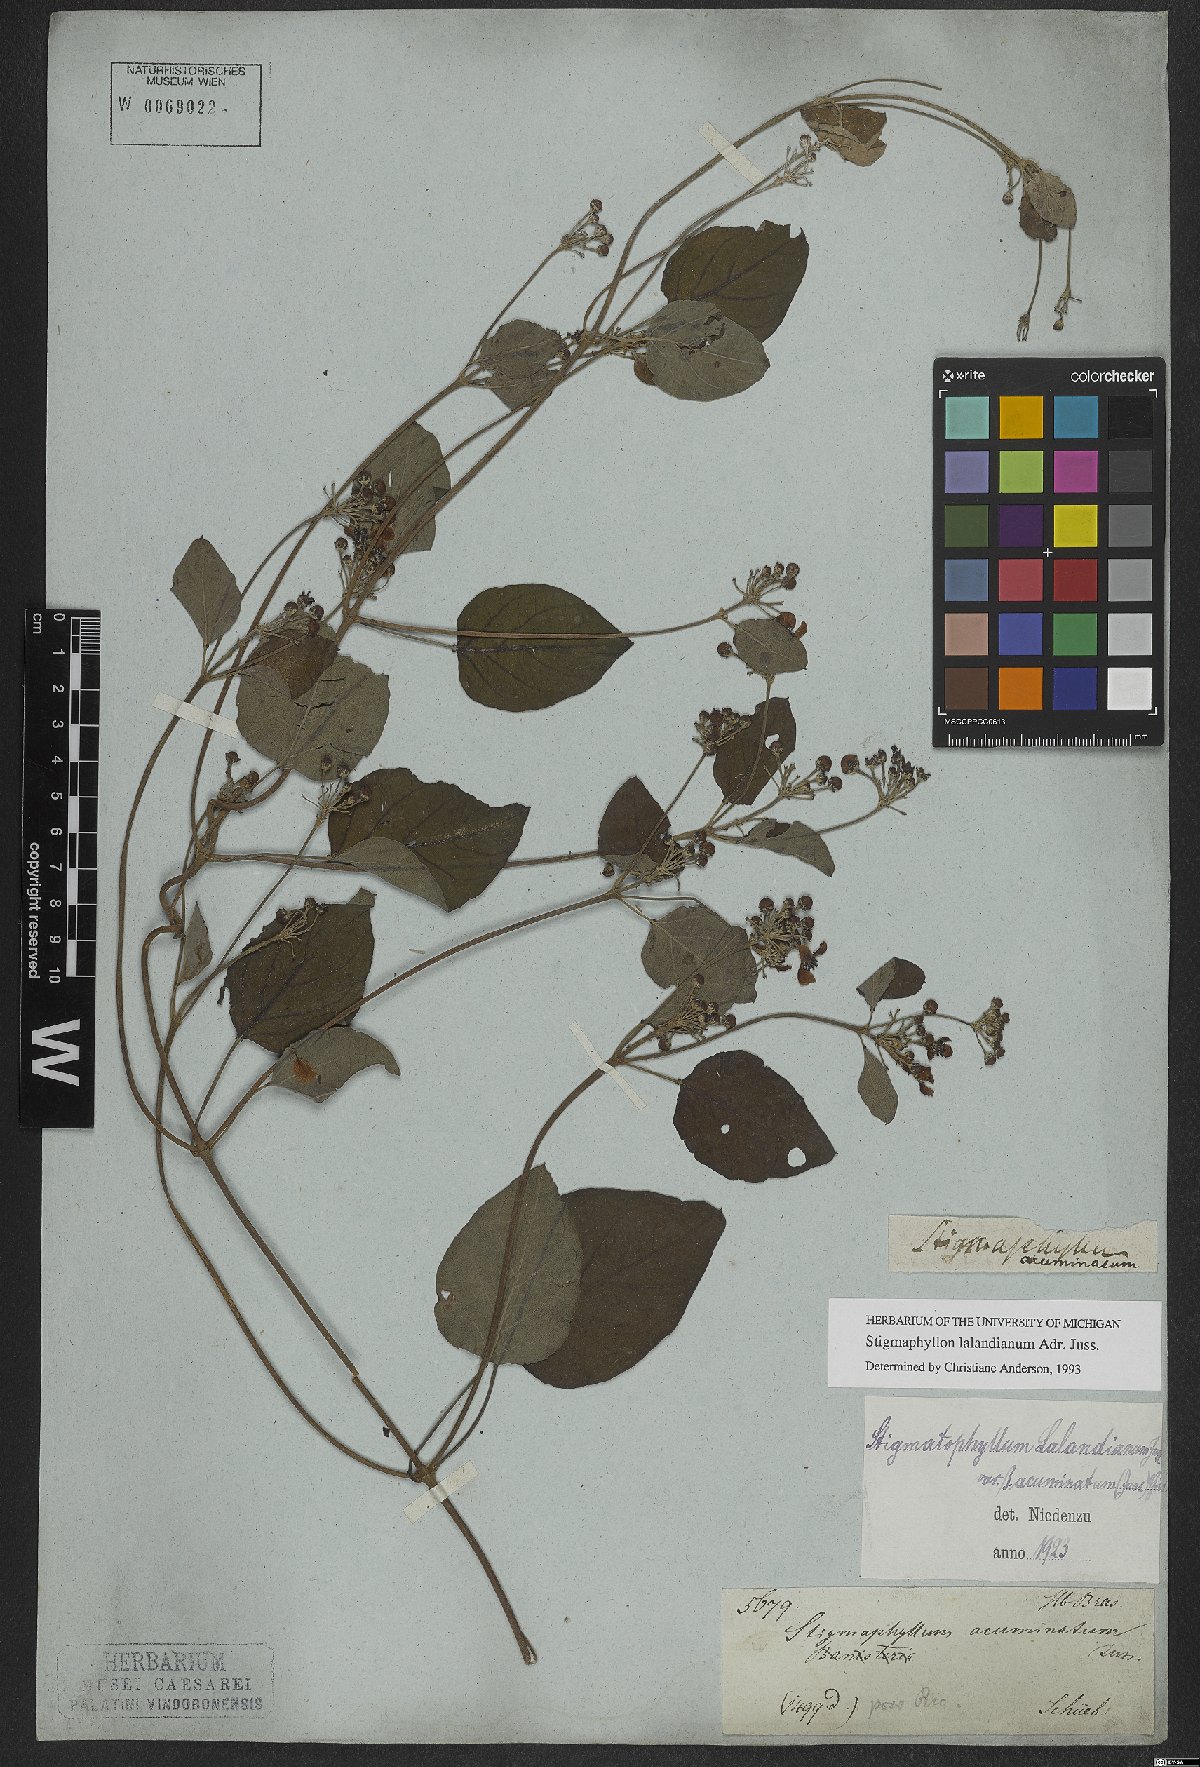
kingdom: Plantae
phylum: Tracheophyta
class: Magnoliopsida
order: Malpighiales
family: Malpighiaceae
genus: Stigmaphyllon
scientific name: Stigmaphyllon lalandianum
